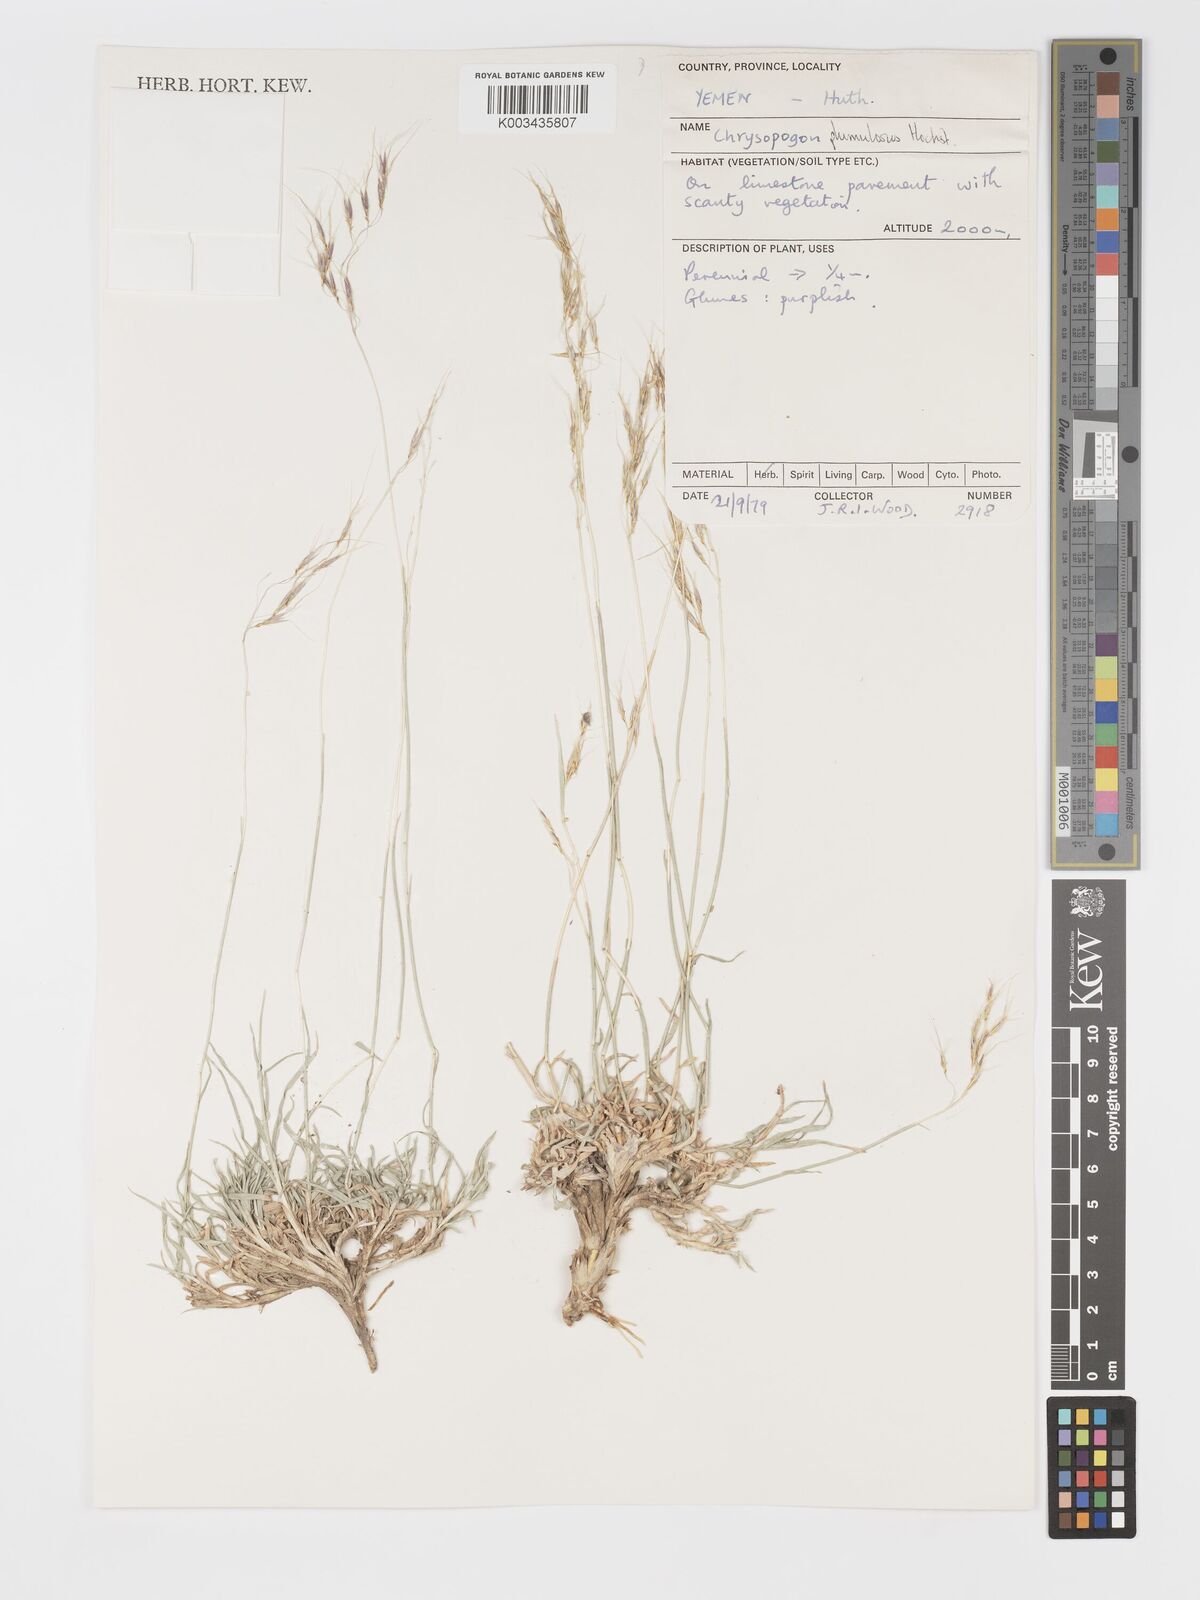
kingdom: Plantae
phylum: Tracheophyta
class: Liliopsida
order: Poales
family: Poaceae
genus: Chrysopogon
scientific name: Chrysopogon plumulosus
